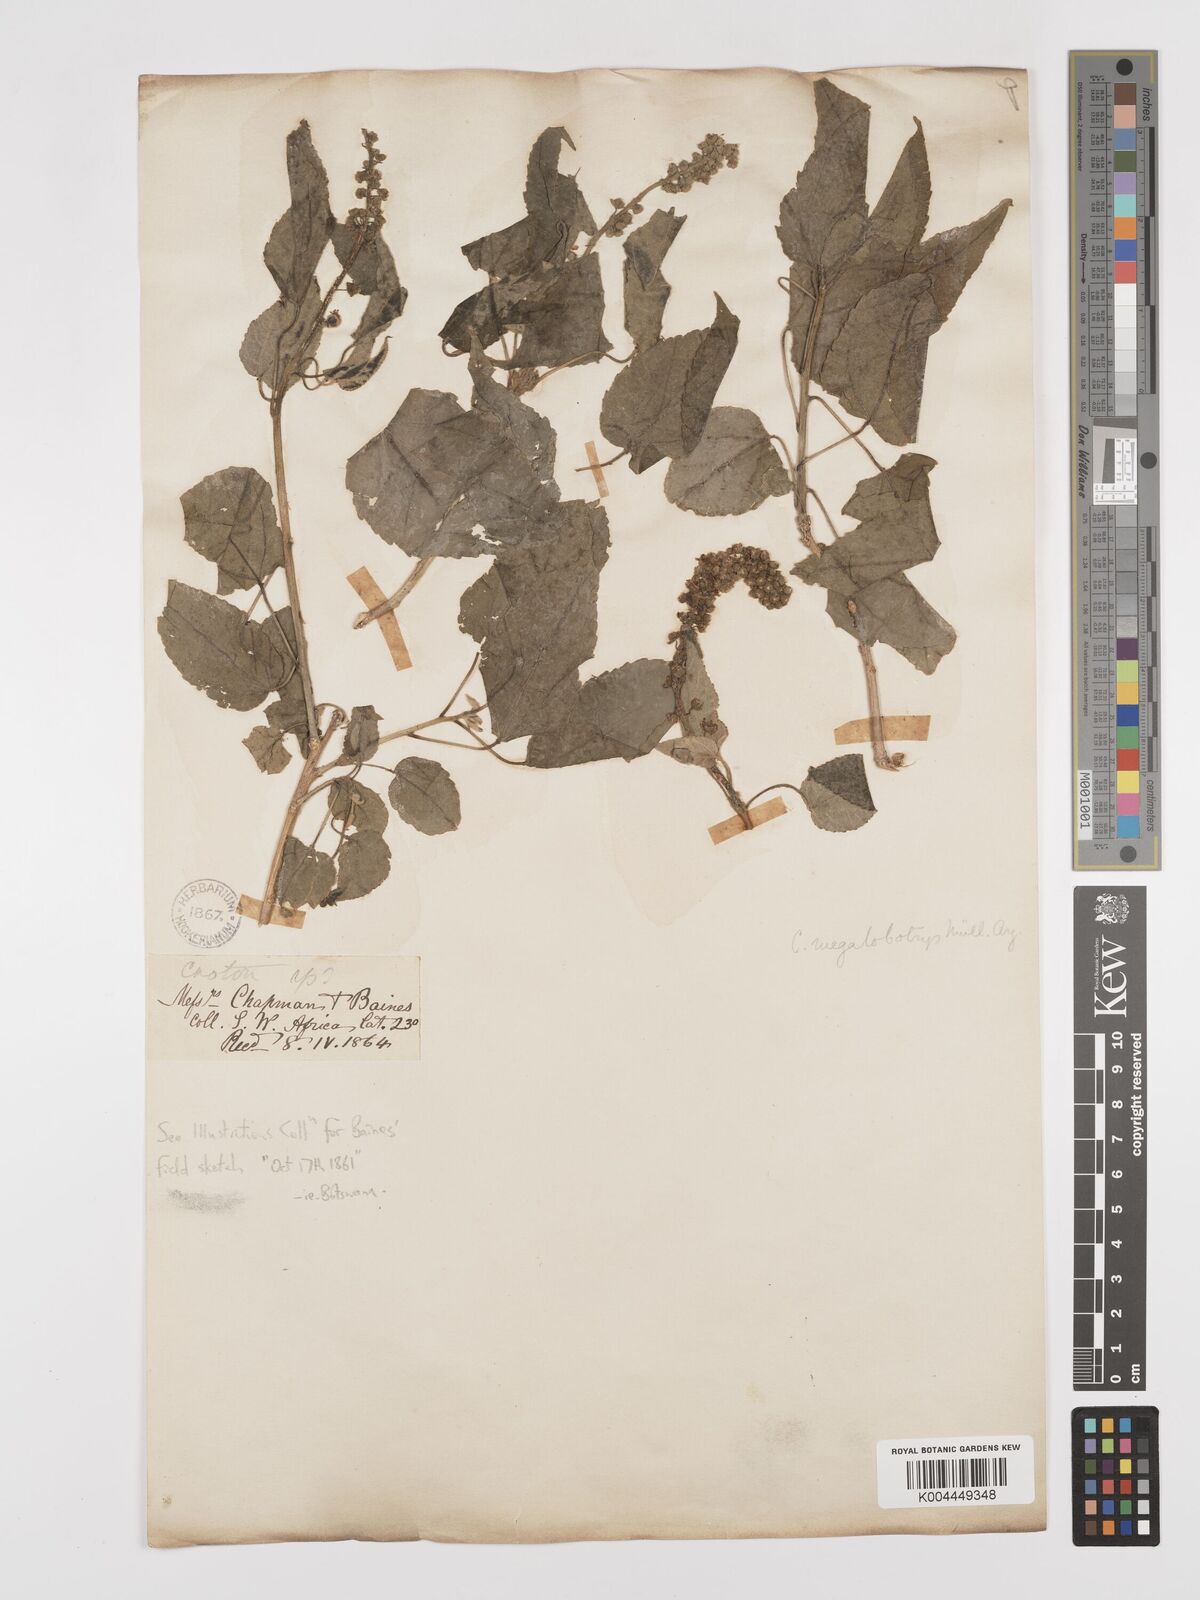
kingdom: Plantae
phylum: Tracheophyta
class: Magnoliopsida
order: Malpighiales
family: Euphorbiaceae
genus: Croton
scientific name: Croton megalobotrys
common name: Large fever berry
